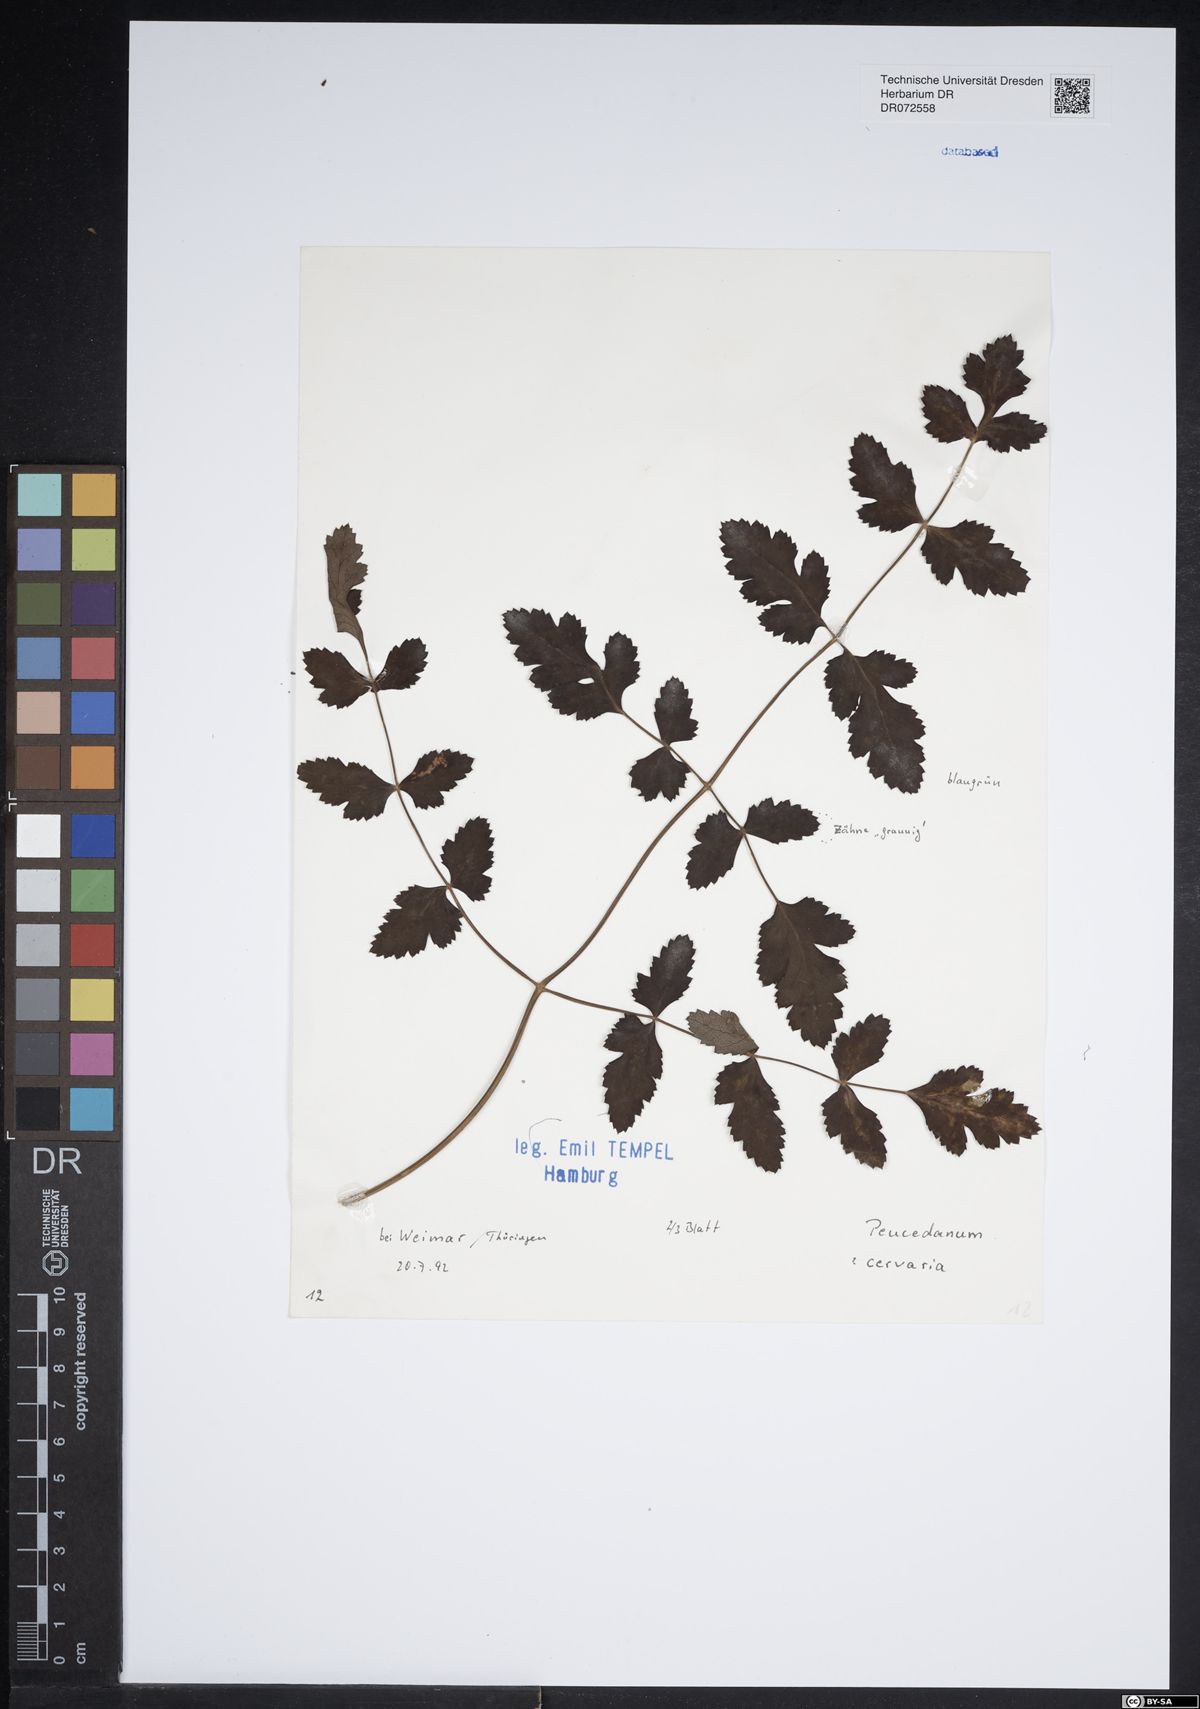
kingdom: Plantae
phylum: Tracheophyta
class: Magnoliopsida
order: Apiales
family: Apiaceae
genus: Cervaria
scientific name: Cervaria rivini
